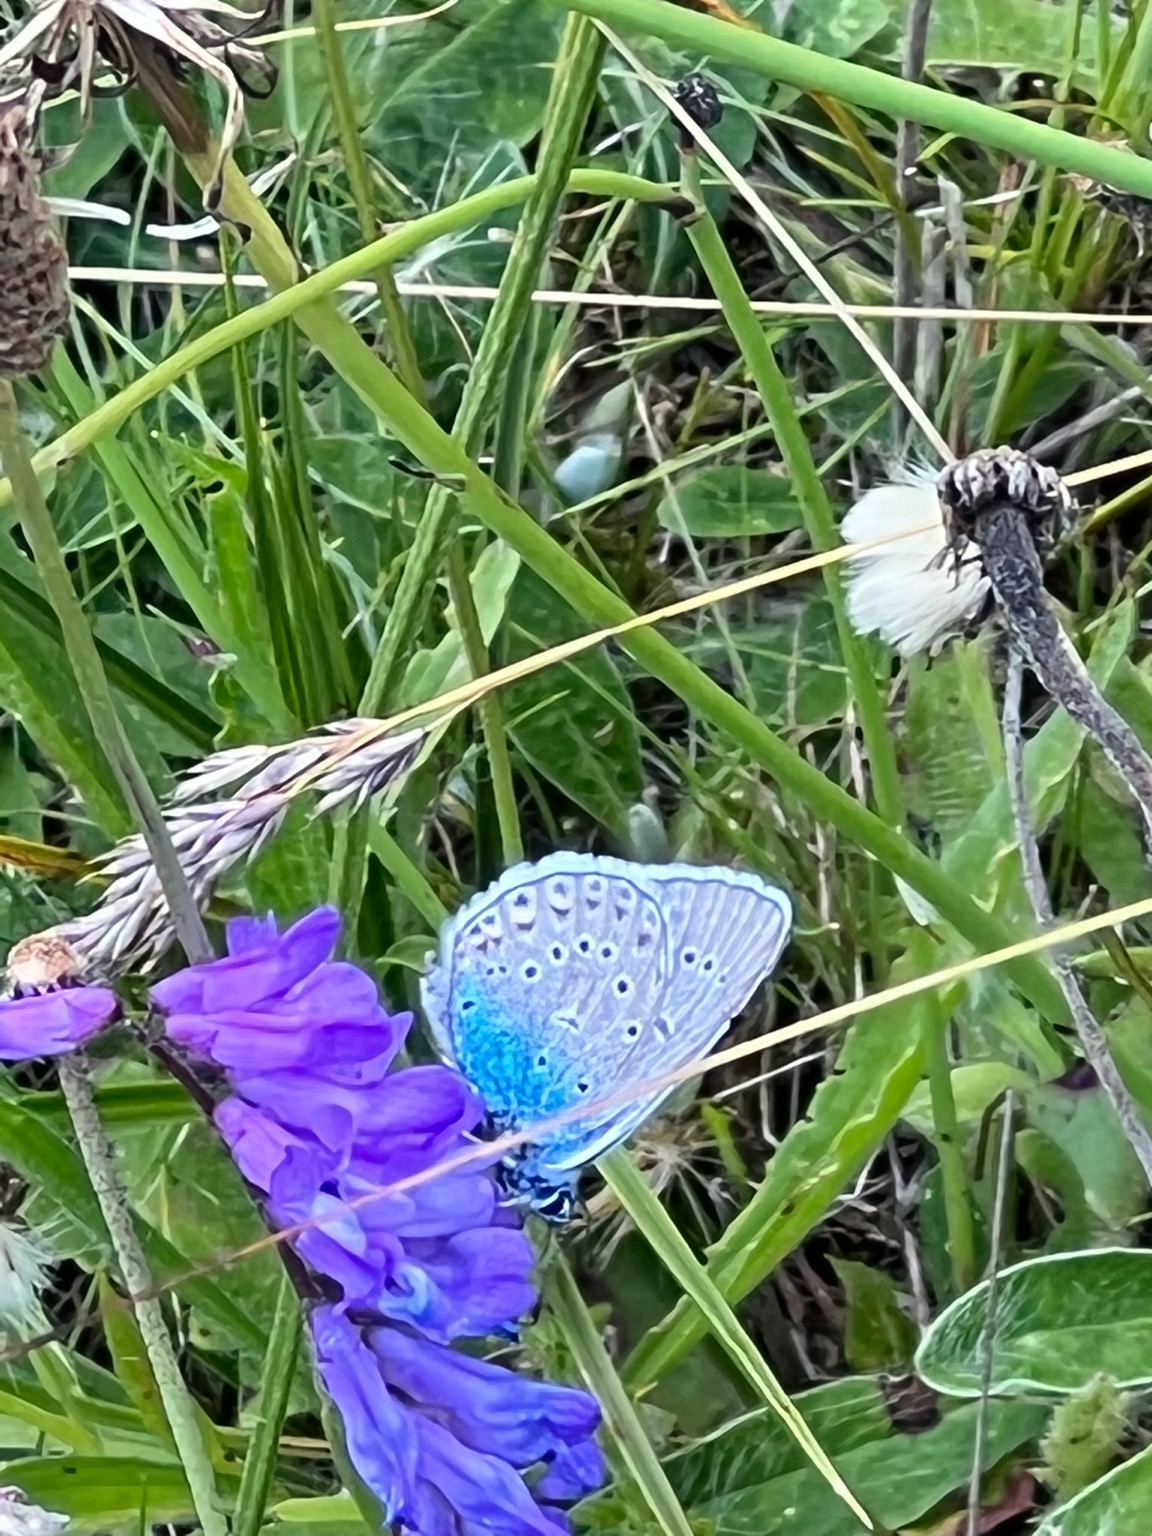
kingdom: Animalia
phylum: Arthropoda
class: Insecta
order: Lepidoptera
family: Lycaenidae
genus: Plebejus
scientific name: Plebejus amanda
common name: Isblåfugl
